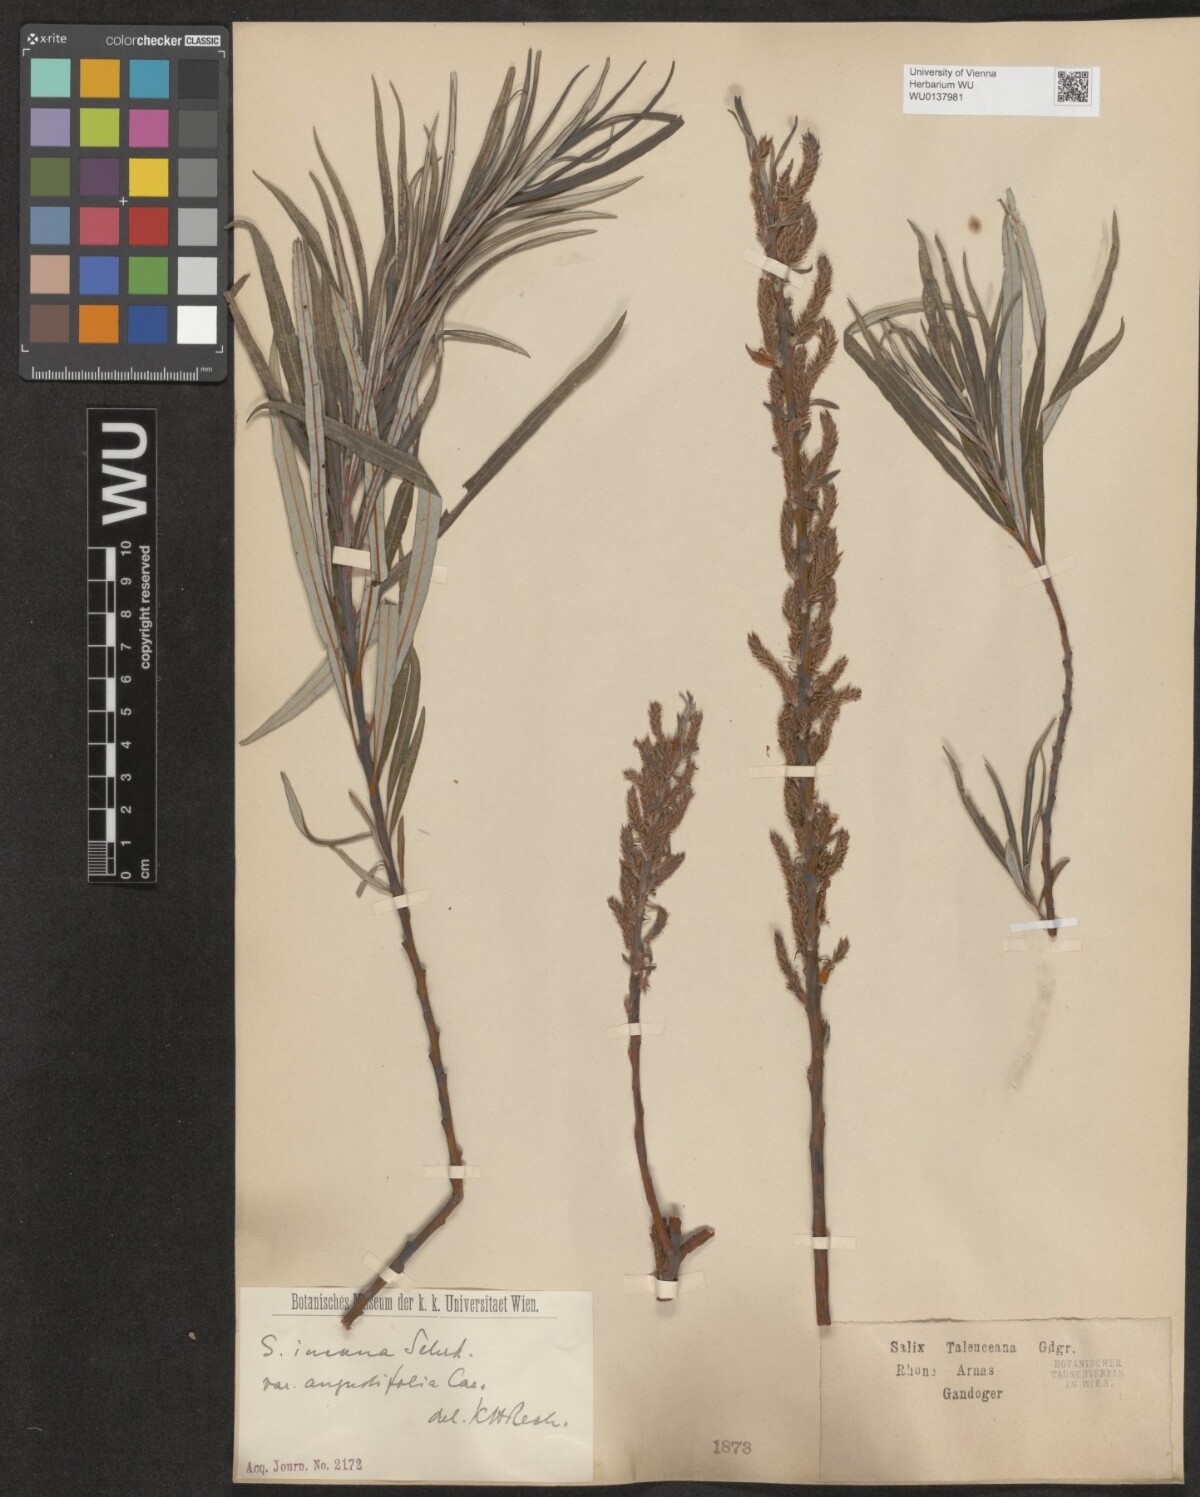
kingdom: Plantae
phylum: Tracheophyta
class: Magnoliopsida
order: Malpighiales
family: Salicaceae
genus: Salix
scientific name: Salix eleagnos
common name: Elaeagnus willow
